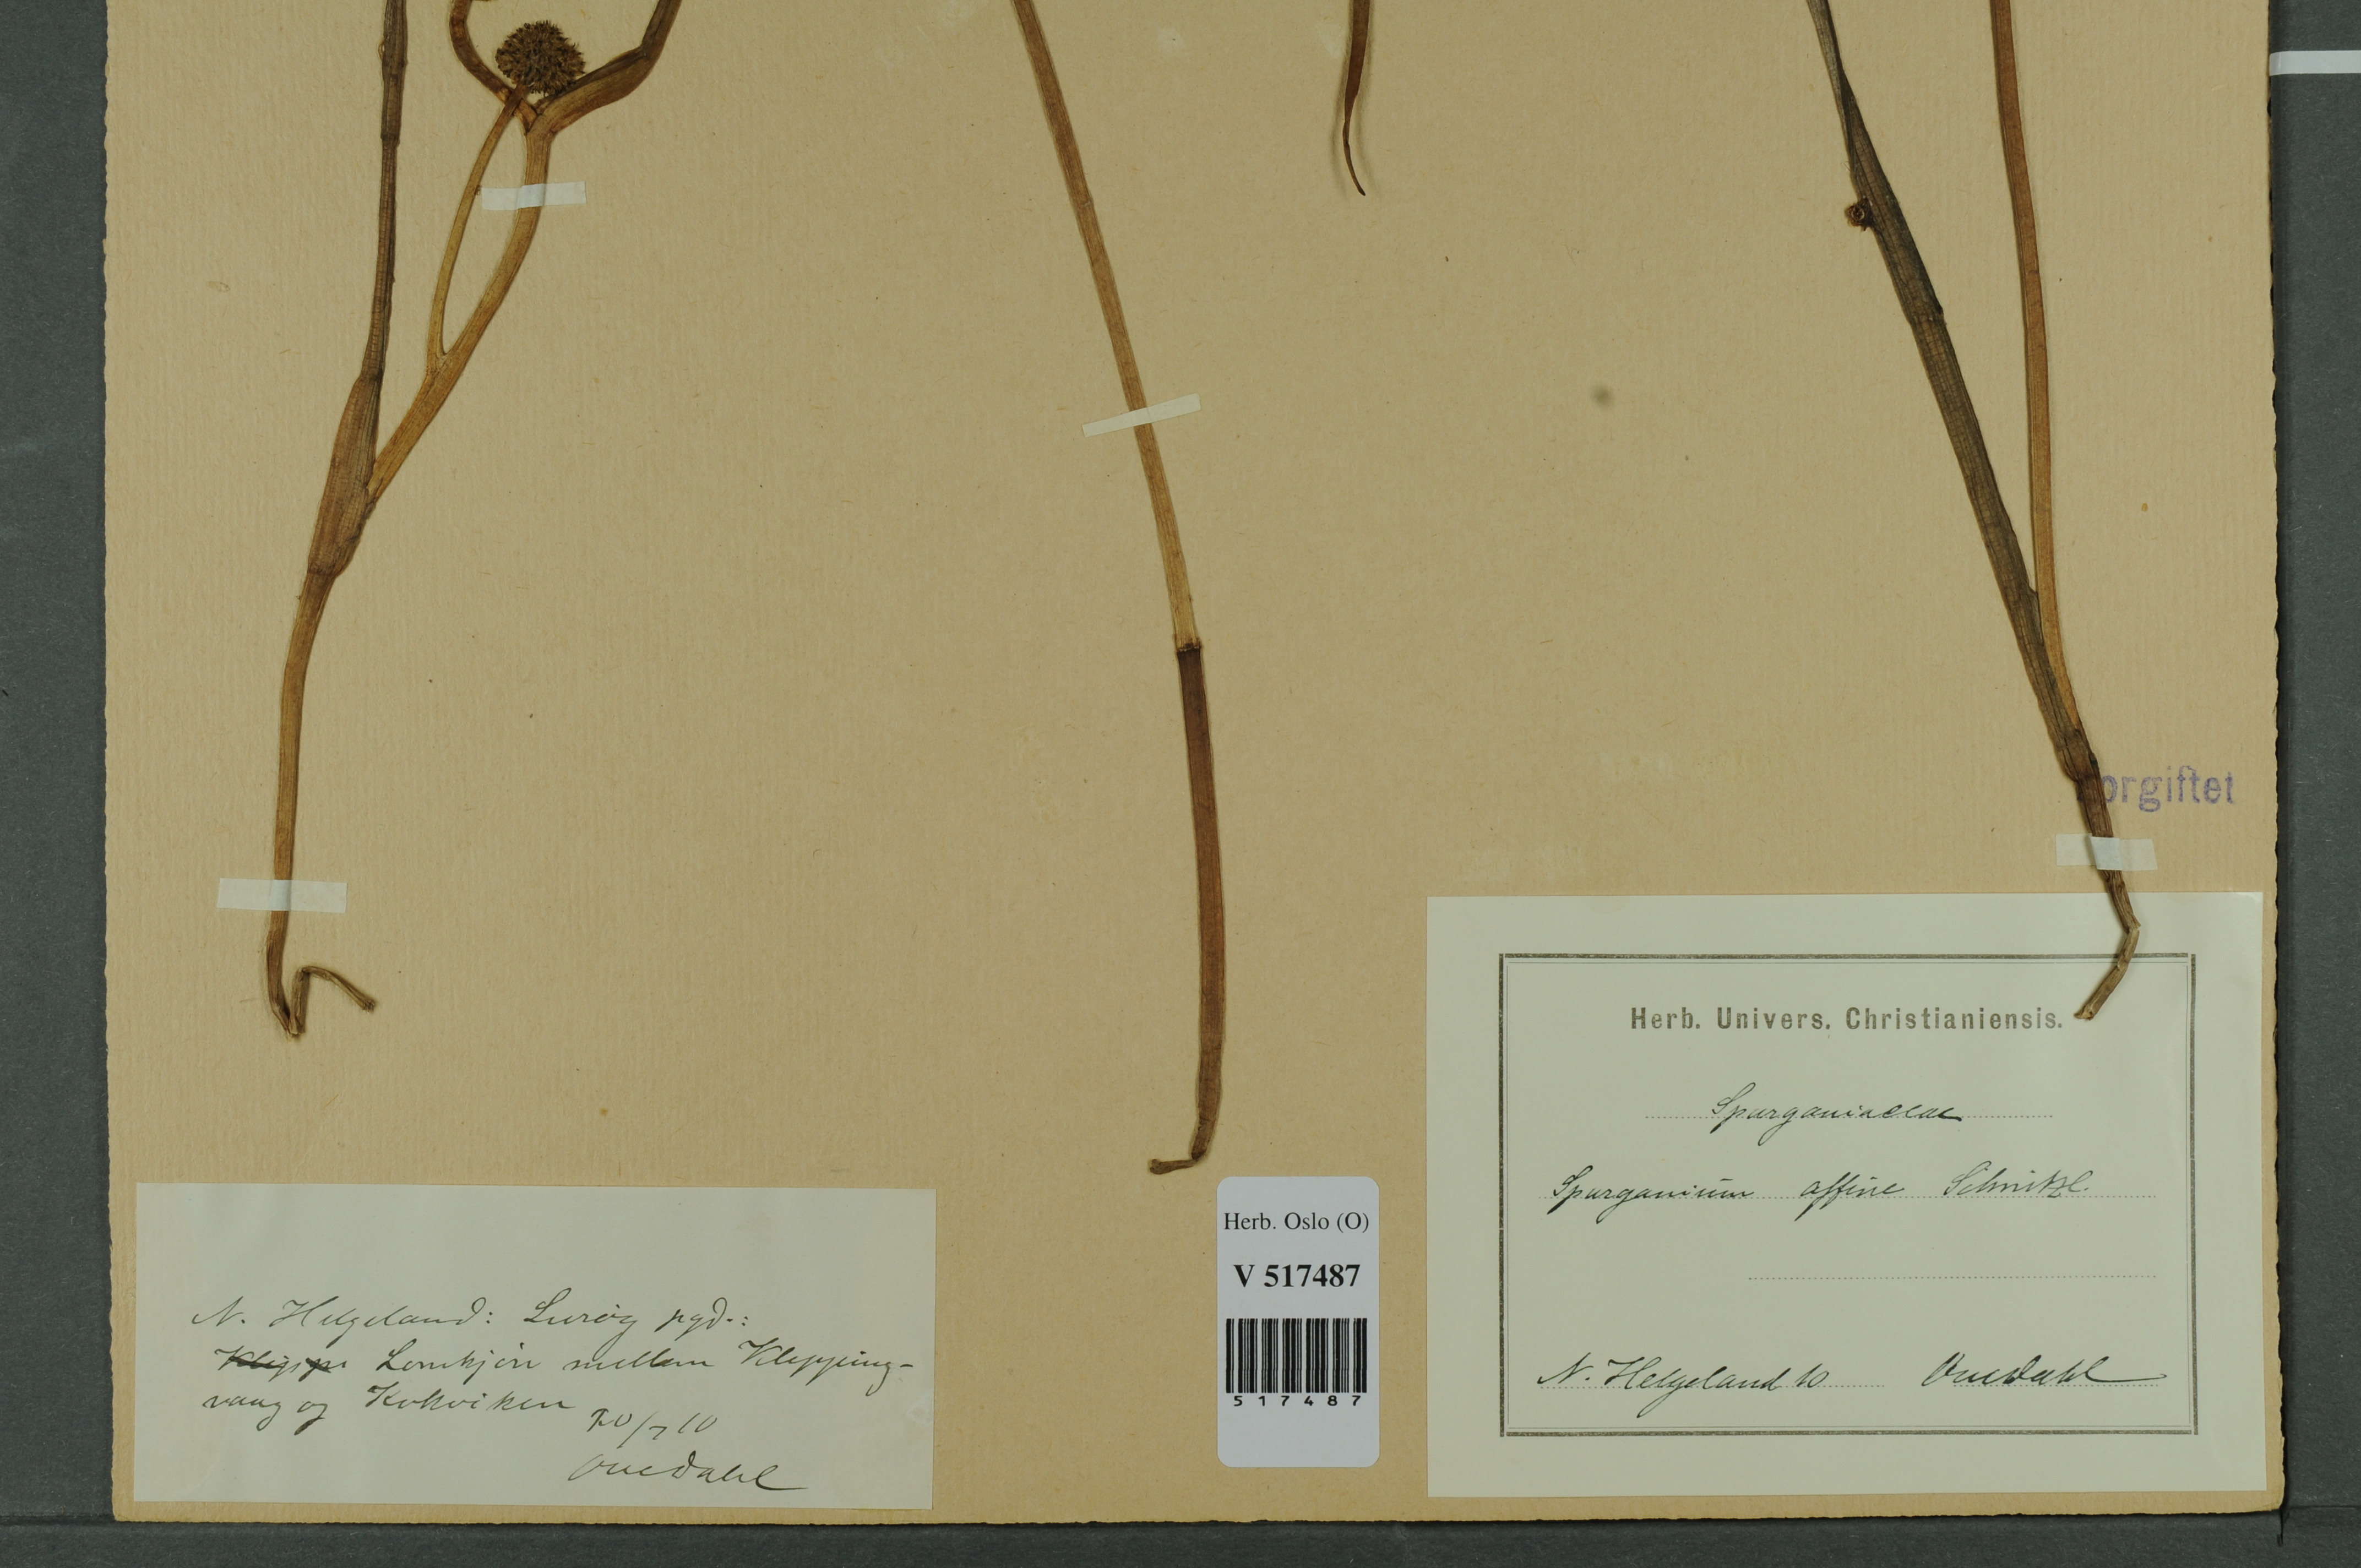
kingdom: Plantae
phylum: Tracheophyta
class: Liliopsida
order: Poales
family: Typhaceae
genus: Sparganium
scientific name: Sparganium angustifolium
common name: Floating bur-reed
